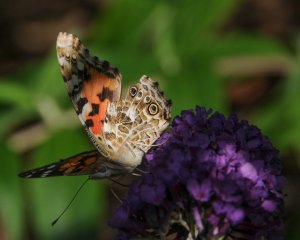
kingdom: Animalia
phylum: Arthropoda
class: Insecta
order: Lepidoptera
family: Nymphalidae
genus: Vanessa
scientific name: Vanessa cardui
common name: Painted Lady
